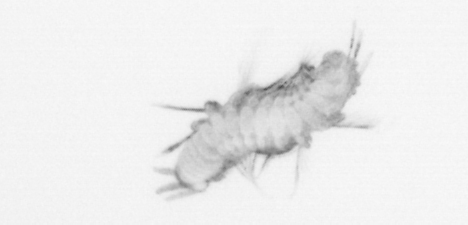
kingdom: Animalia
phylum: Annelida
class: Polychaeta
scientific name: Polychaeta
